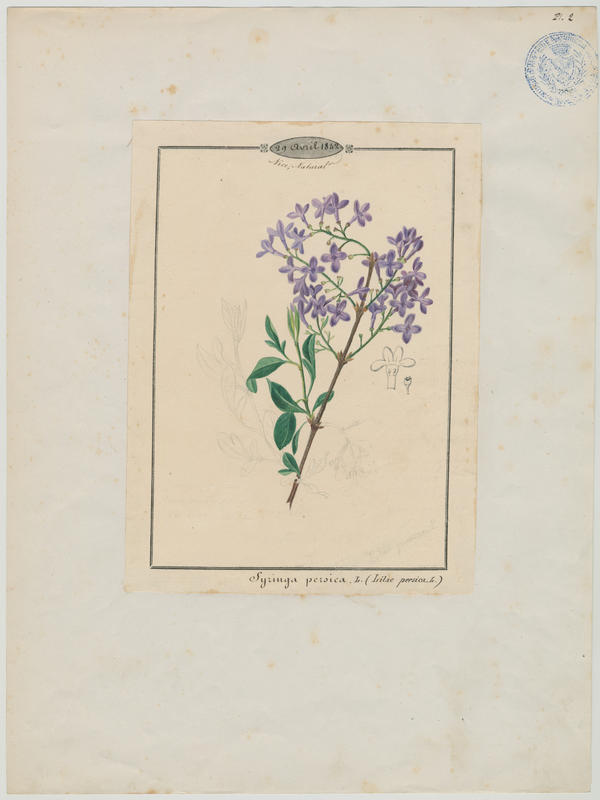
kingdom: Plantae
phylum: Tracheophyta
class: Magnoliopsida
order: Lamiales
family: Oleaceae
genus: Syringa
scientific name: Syringa vulgaris
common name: Common lilac
